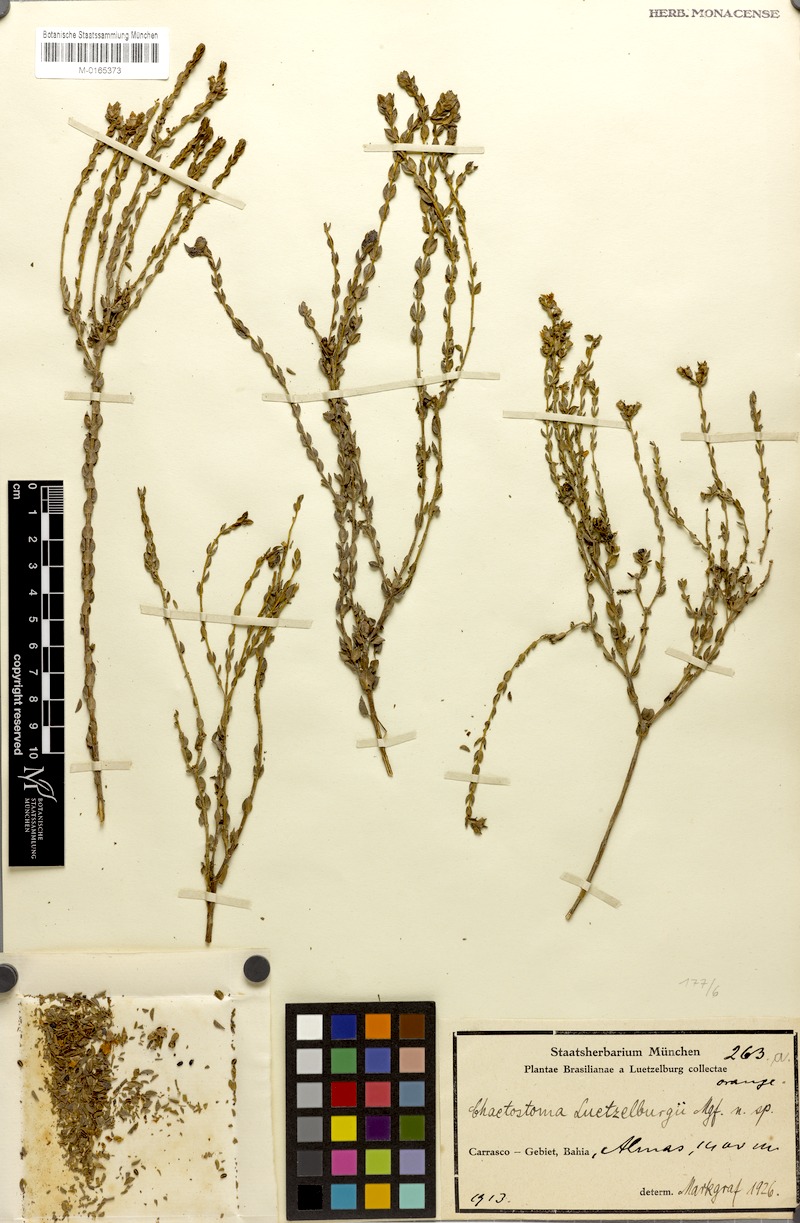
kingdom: Plantae
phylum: Tracheophyta
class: Magnoliopsida
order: Myrtales
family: Melastomataceae
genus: Microlicia
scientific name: Microlicia semiriana
